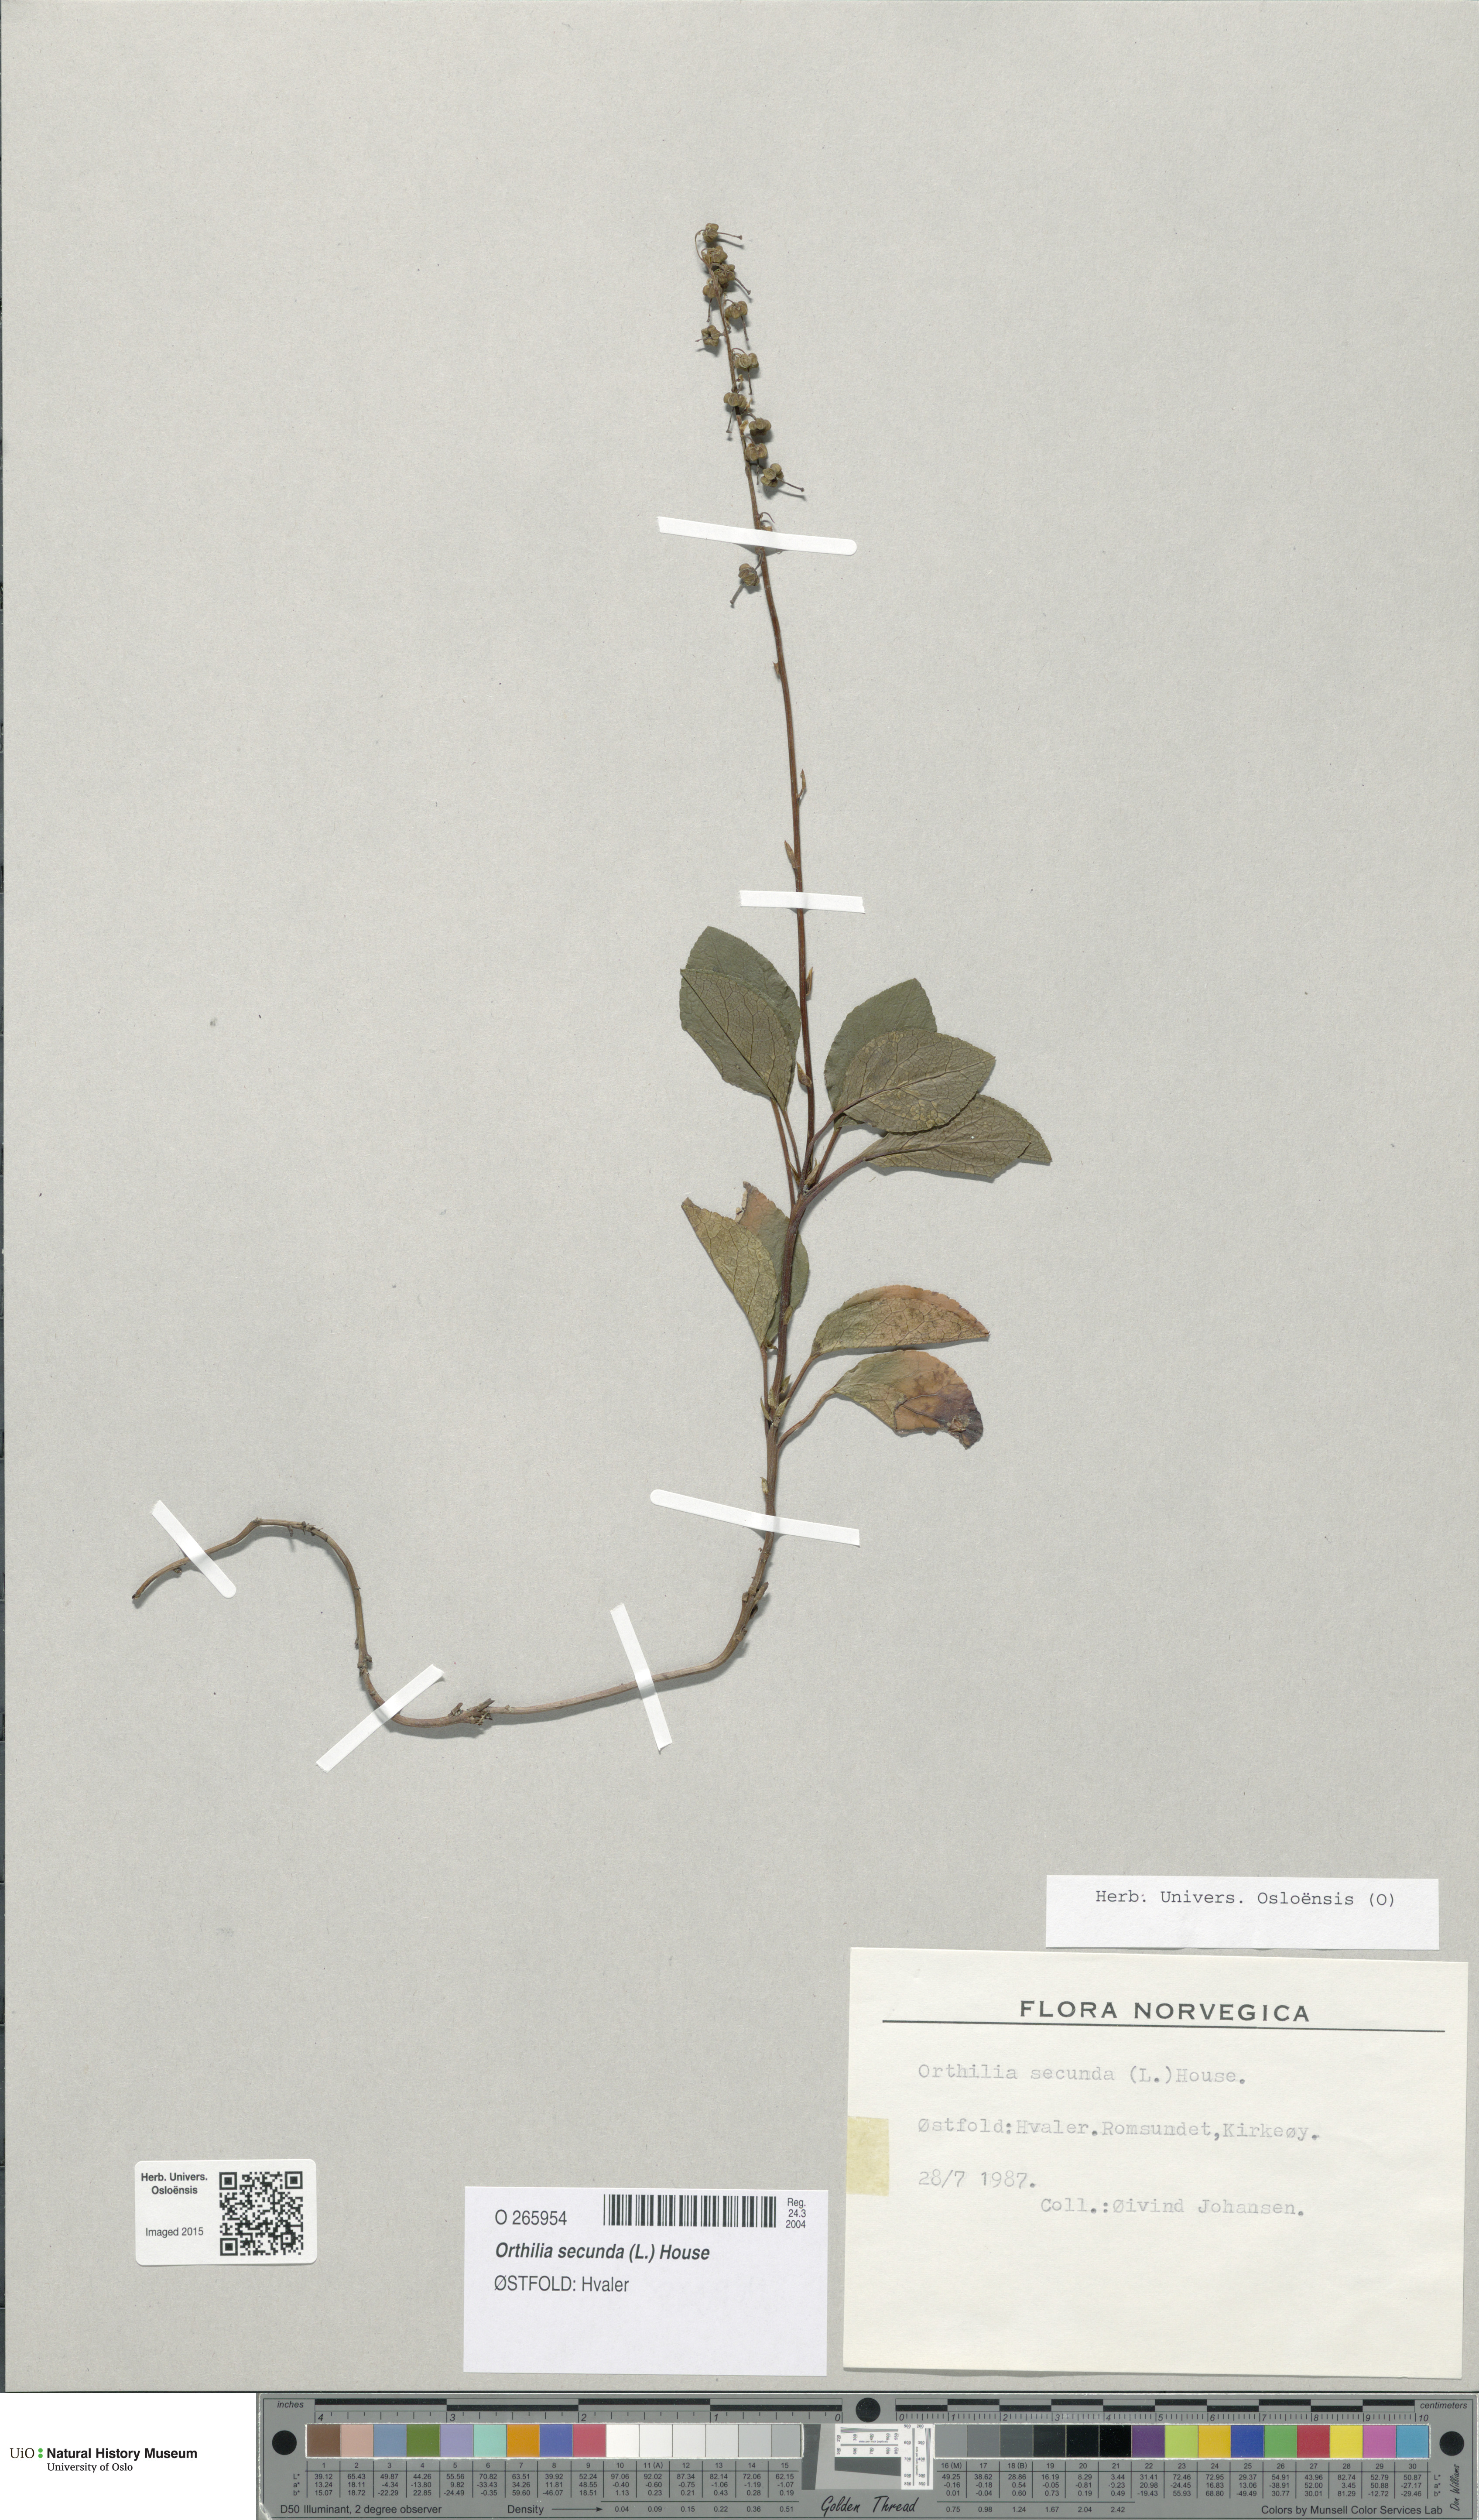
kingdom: Plantae
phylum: Tracheophyta
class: Magnoliopsida
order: Ericales
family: Ericaceae
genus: Orthilia
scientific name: Orthilia secunda
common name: One-sided orthilia
